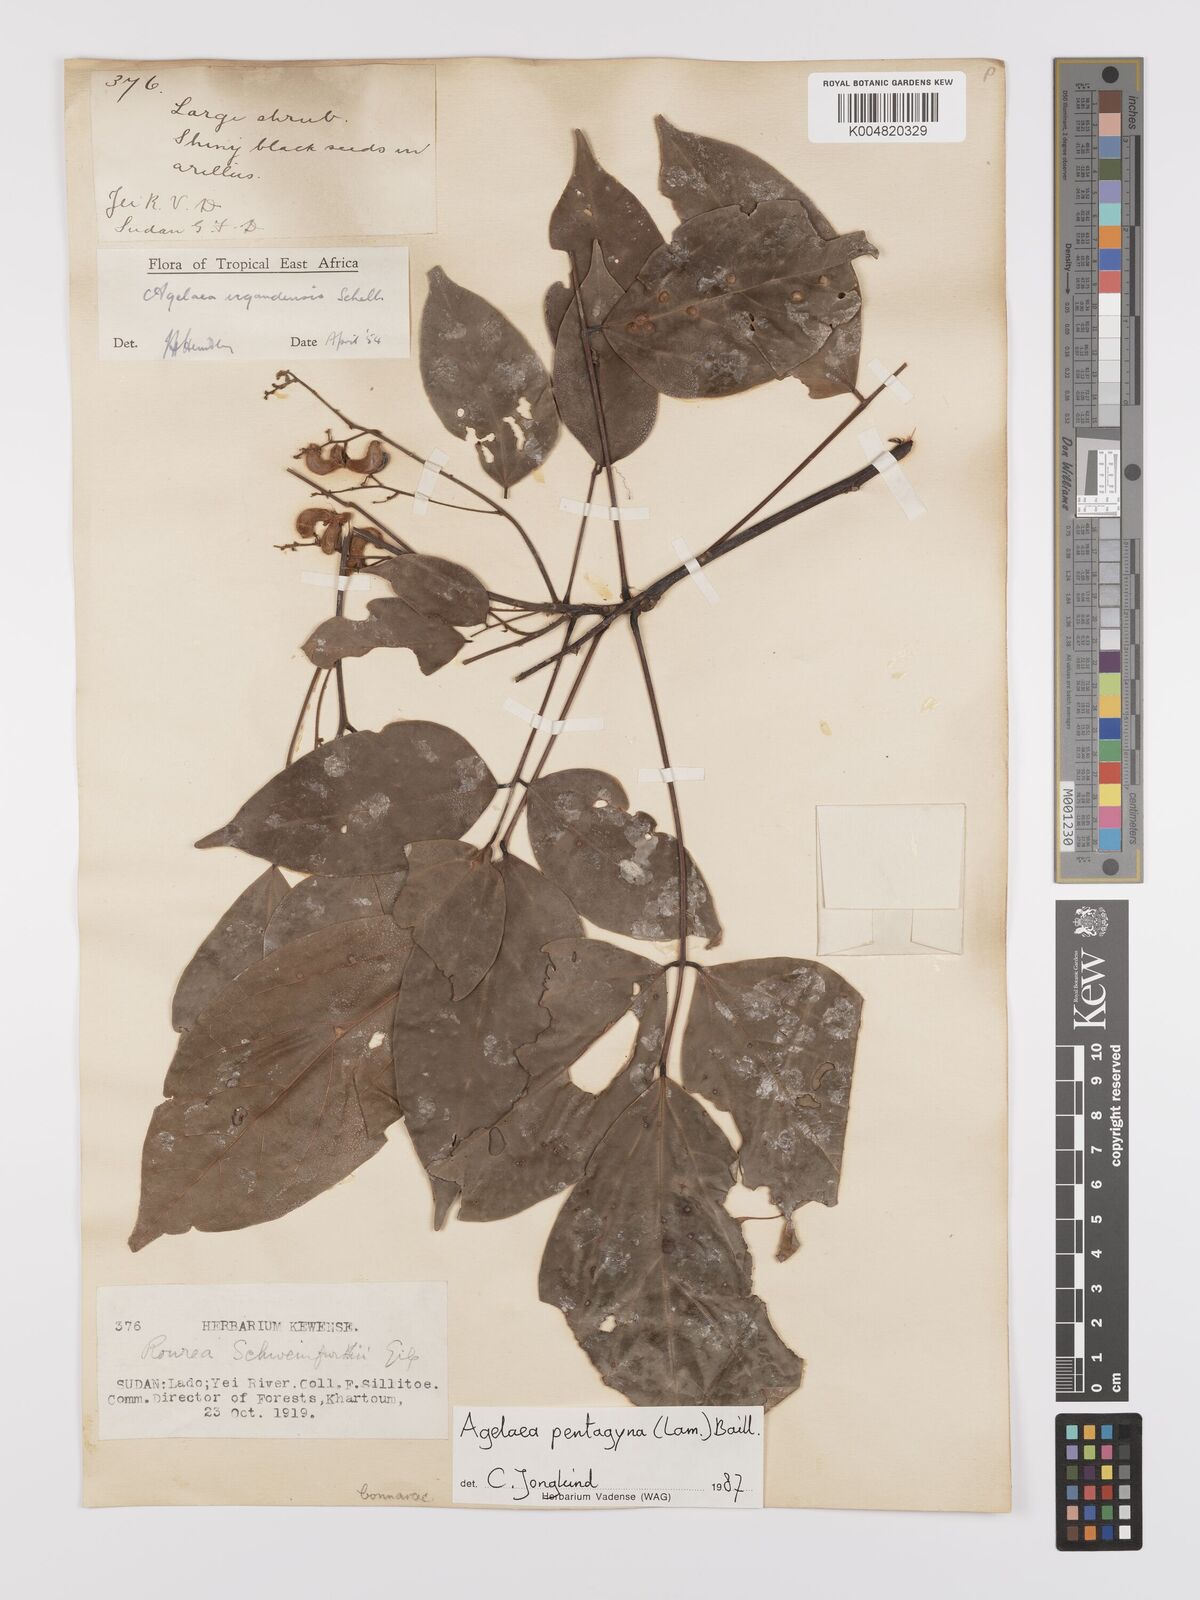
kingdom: Plantae
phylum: Tracheophyta
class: Magnoliopsida
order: Oxalidales
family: Connaraceae
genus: Agelaea
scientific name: Agelaea pentagyna
